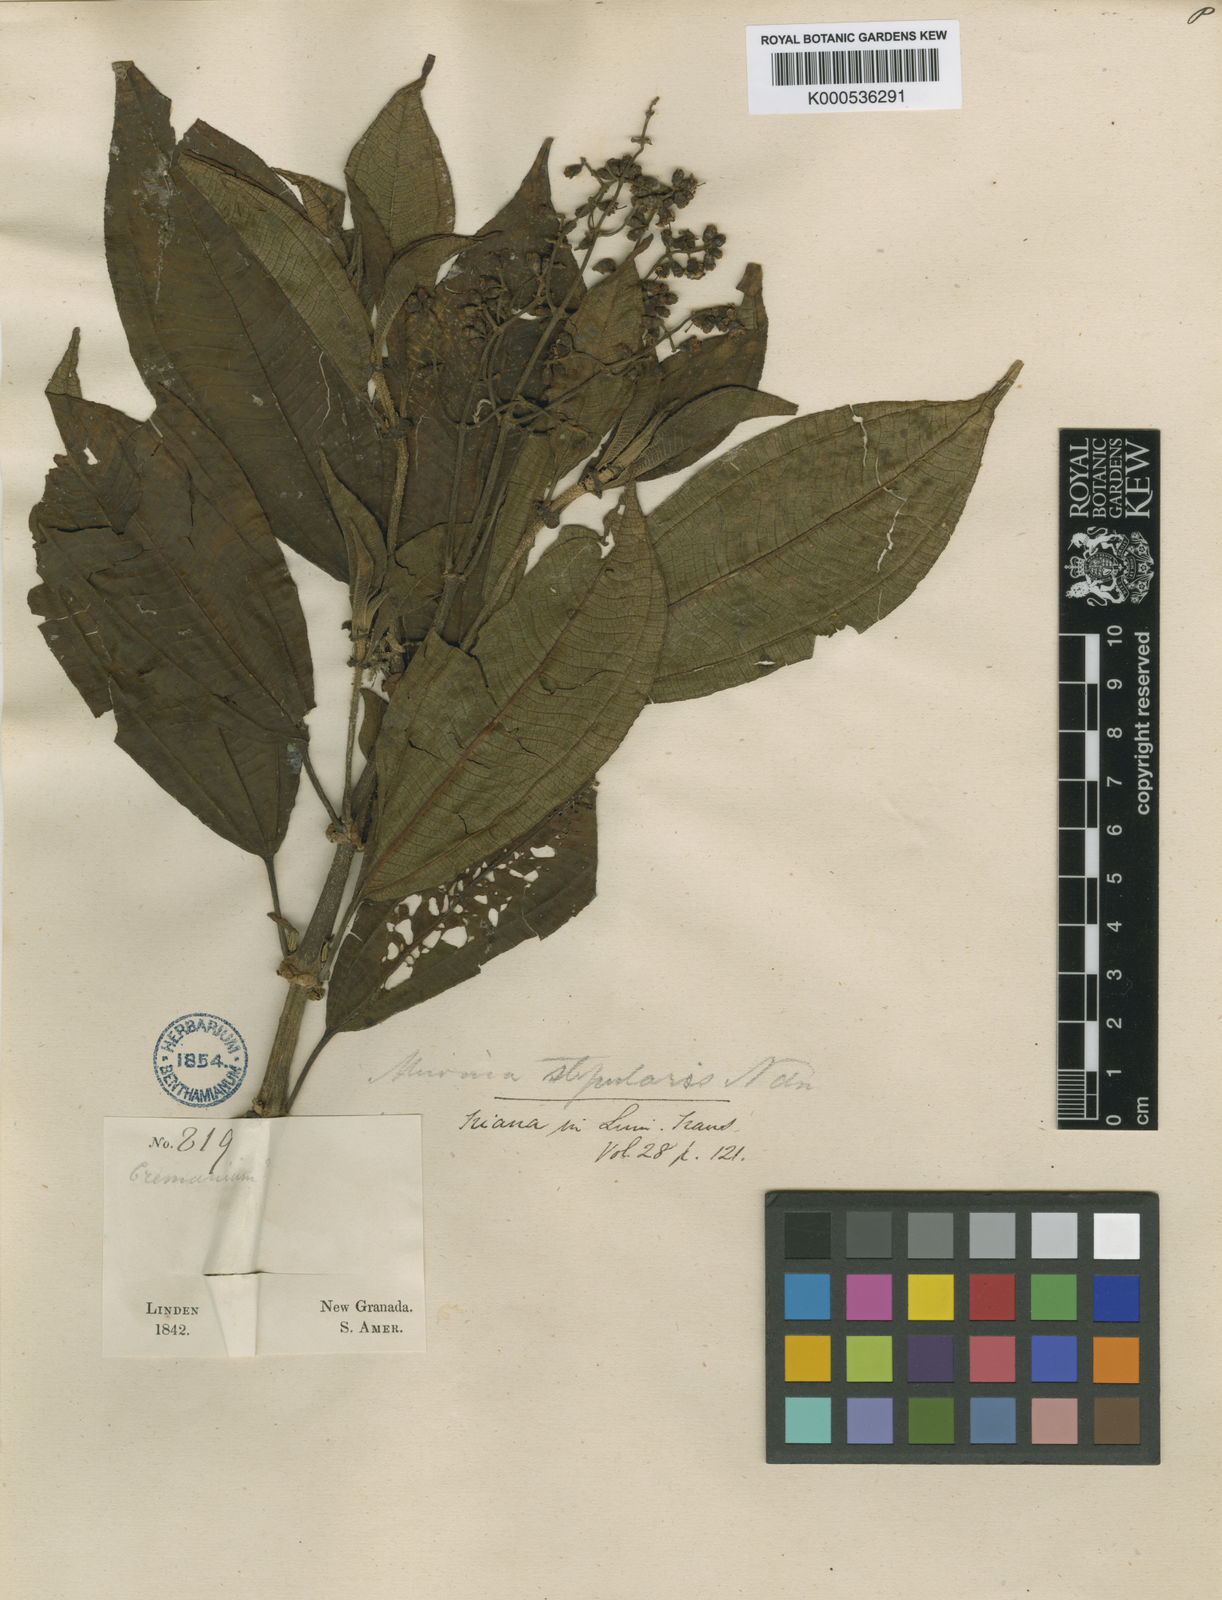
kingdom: Plantae
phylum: Tracheophyta
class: Magnoliopsida
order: Myrtales
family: Melastomataceae
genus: Miconia
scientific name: Miconia stipularis
